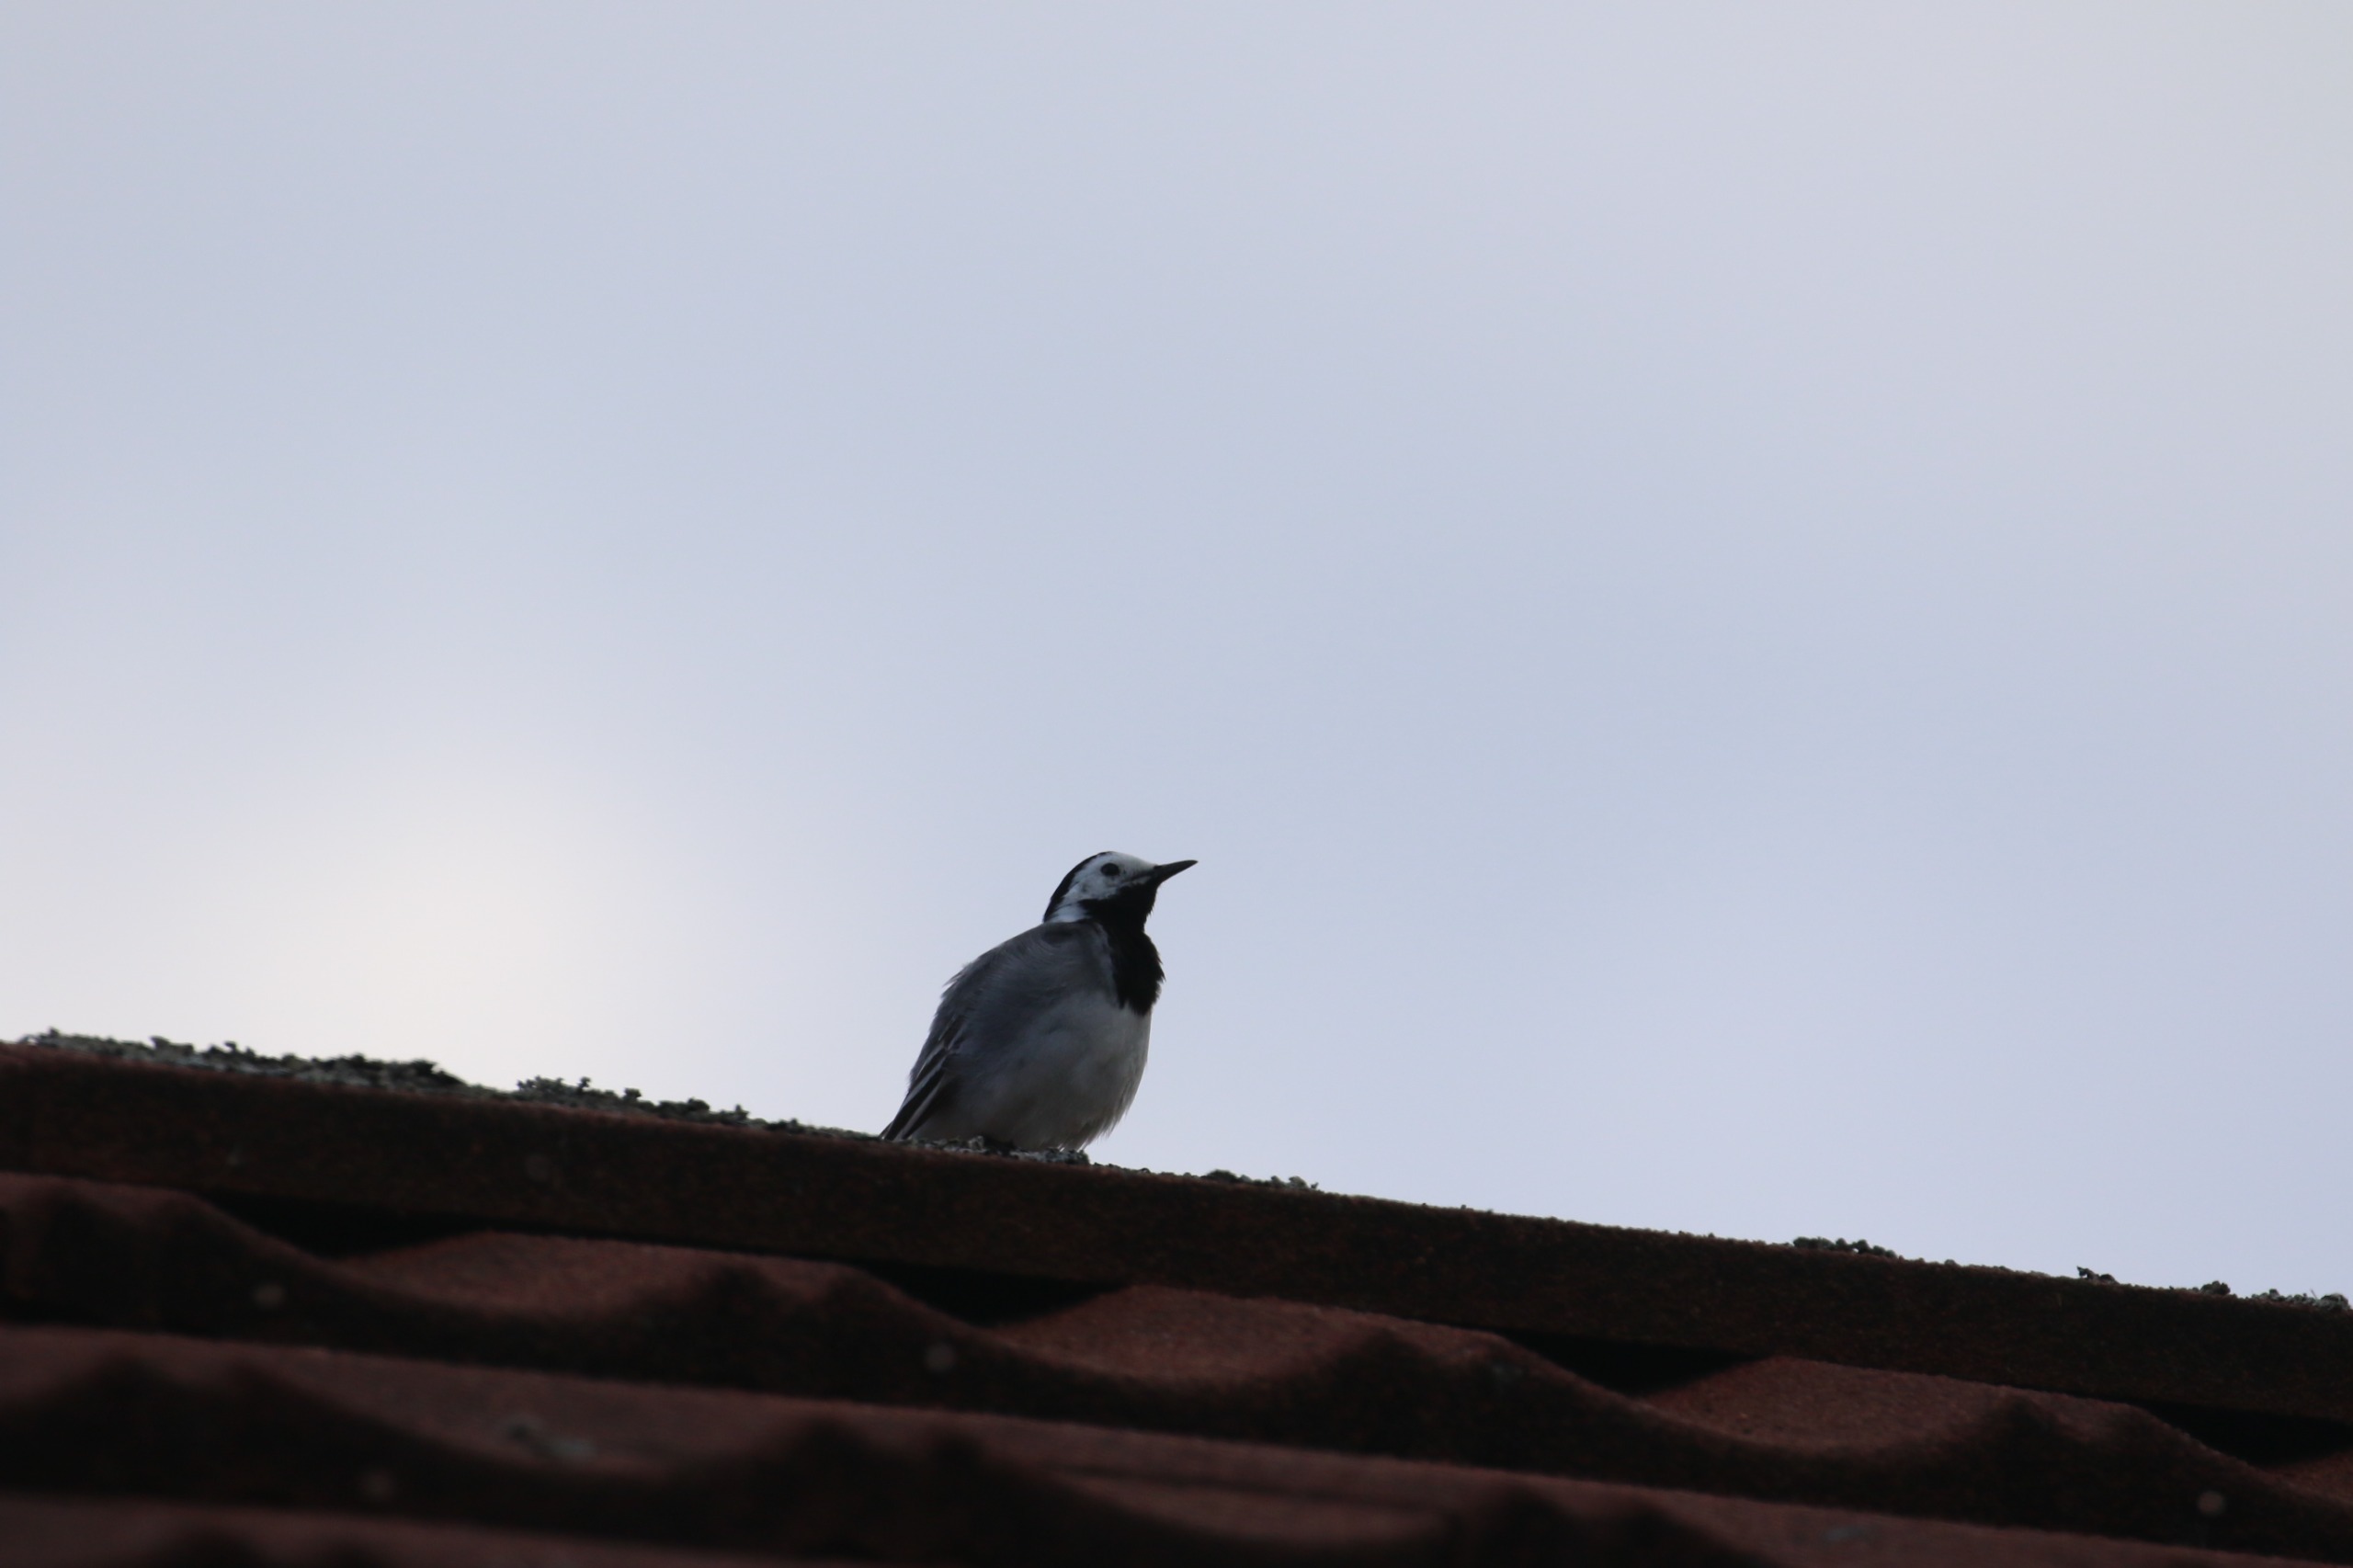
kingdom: Animalia
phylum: Chordata
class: Aves
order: Passeriformes
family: Motacillidae
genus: Motacilla
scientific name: Motacilla alba
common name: Hvid vipstjert
